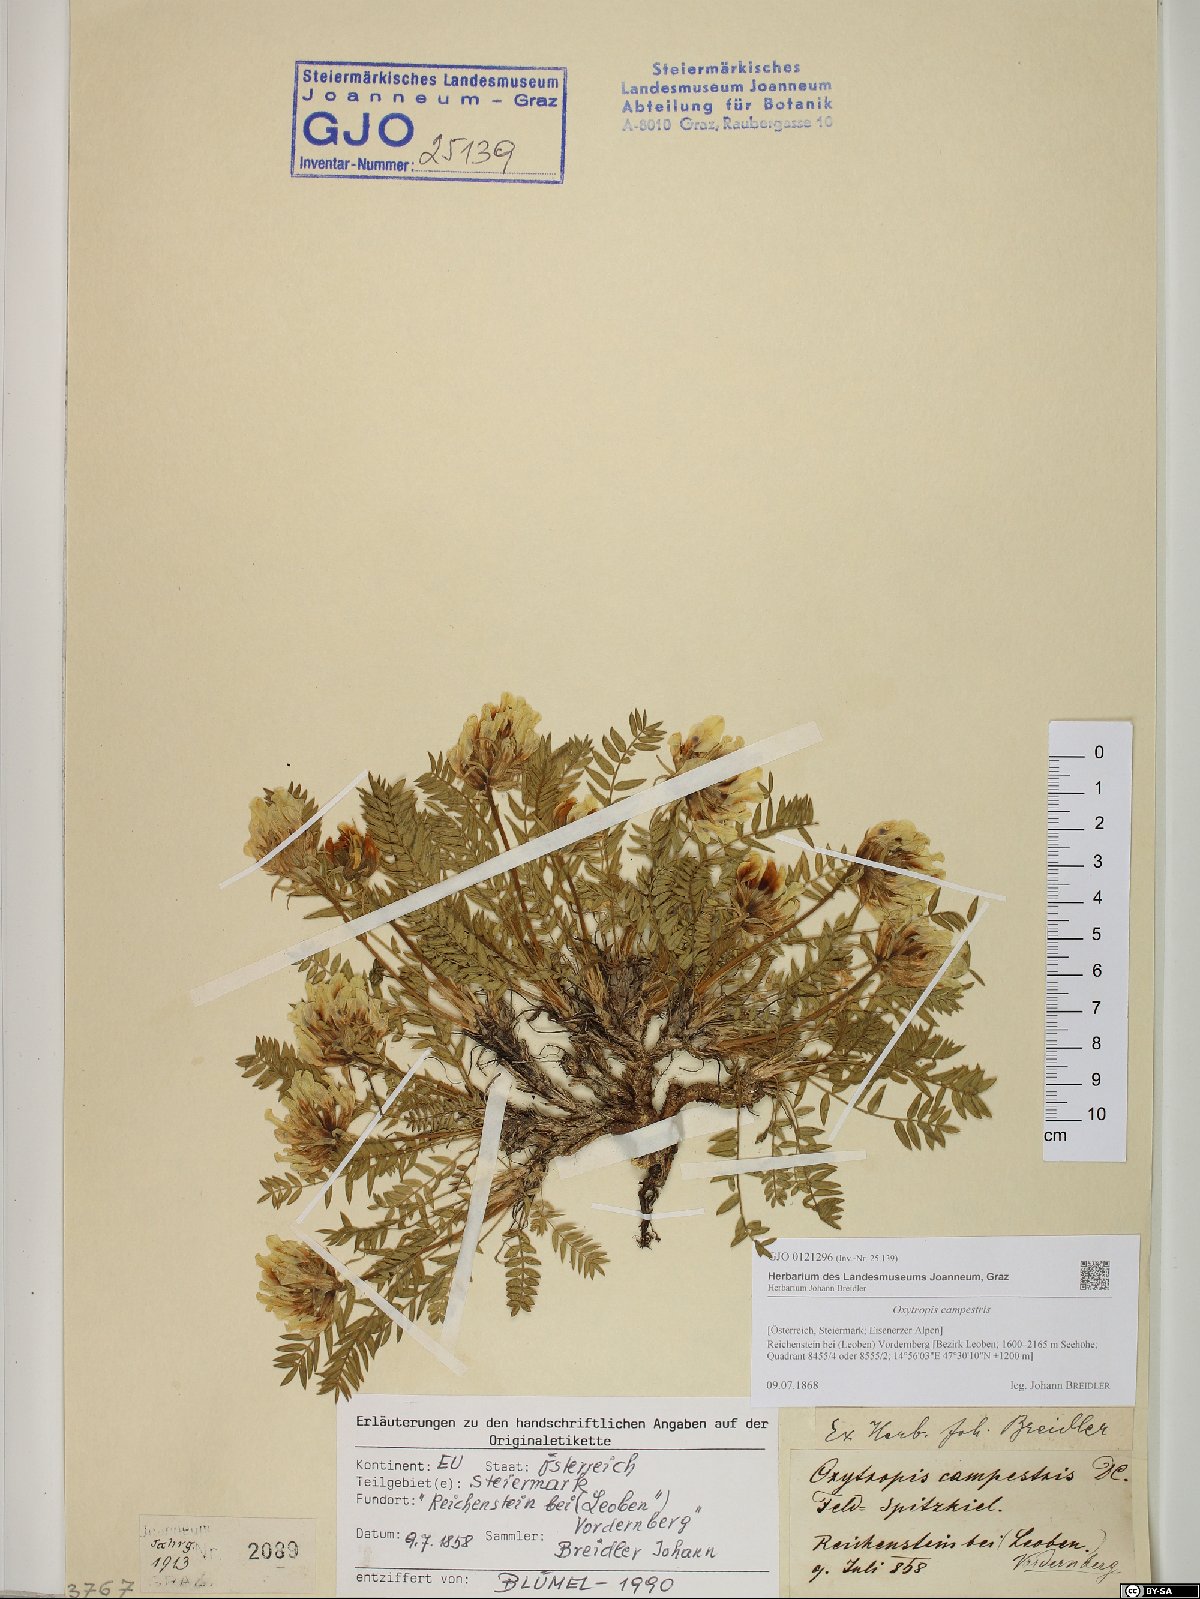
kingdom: Plantae
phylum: Tracheophyta
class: Magnoliopsida
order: Fabales
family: Fabaceae
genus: Oxytropis
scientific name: Oxytropis campestris
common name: Field locoweed
